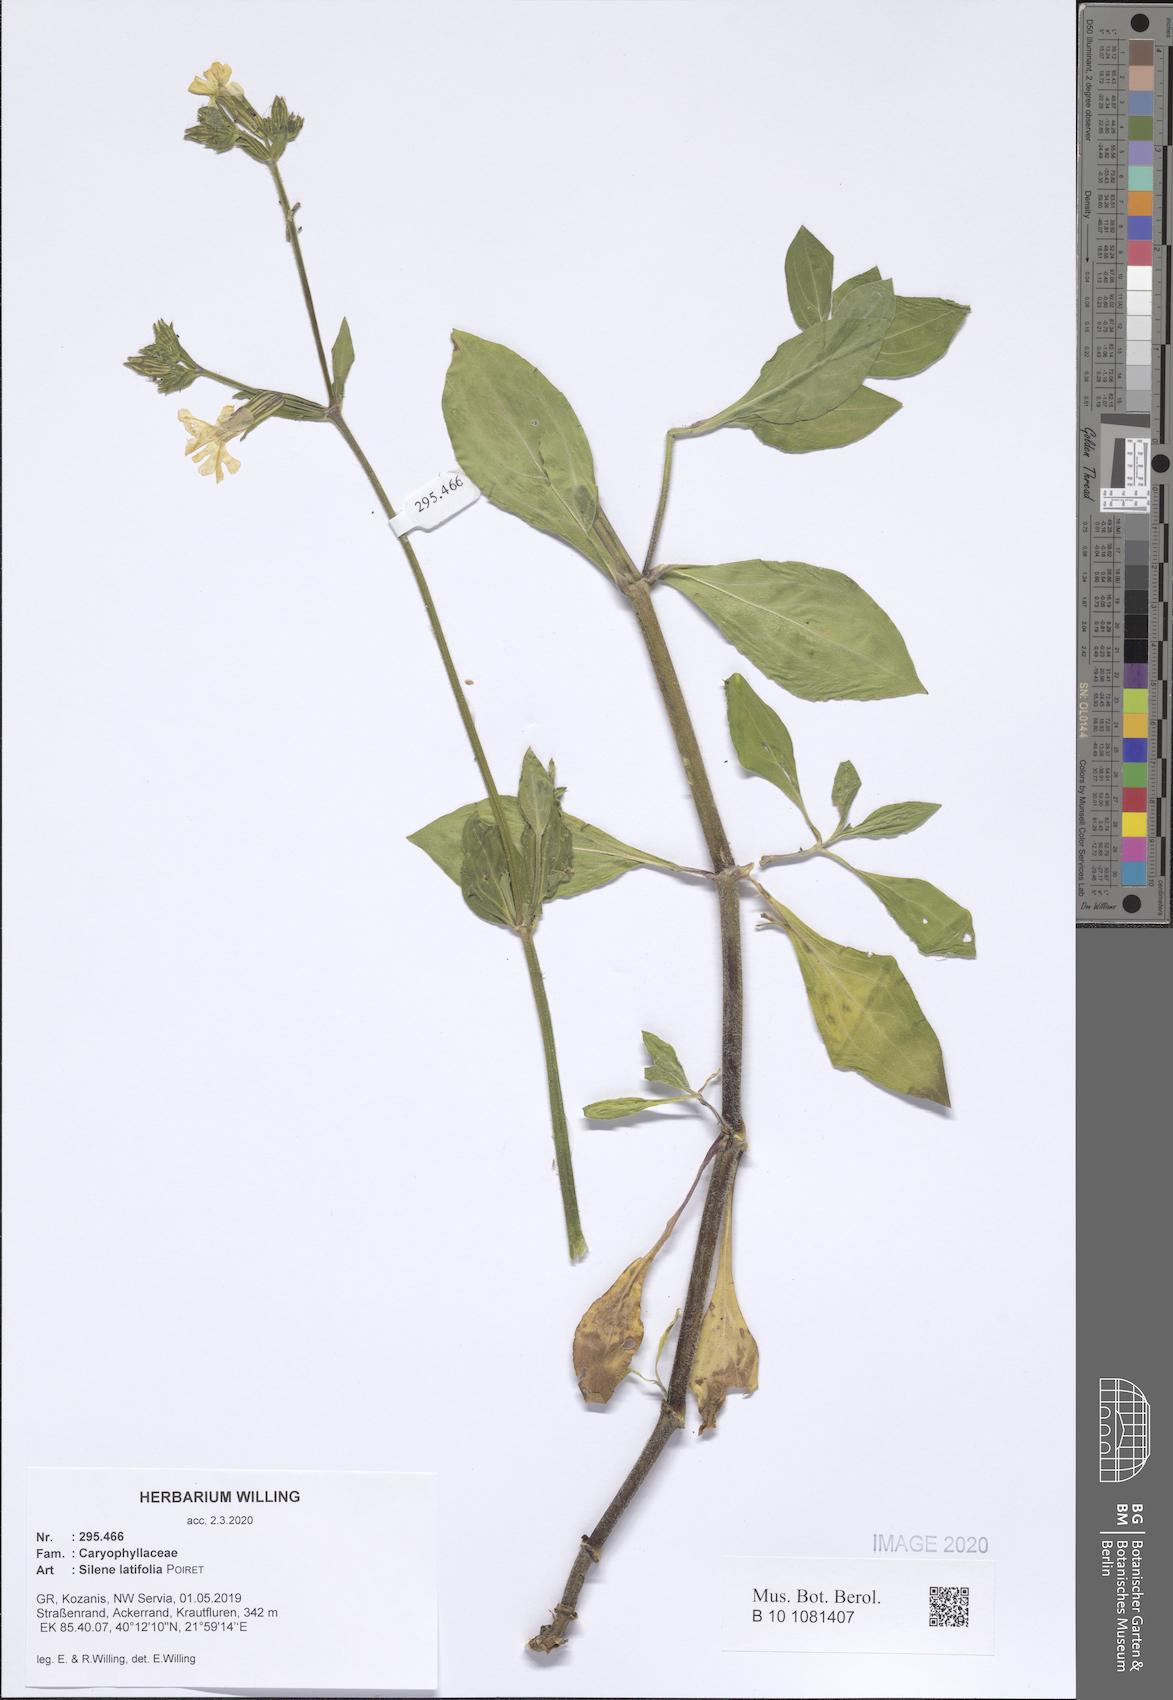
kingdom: Plantae
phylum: Tracheophyta
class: Magnoliopsida
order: Caryophyllales
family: Caryophyllaceae
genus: Silene
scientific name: Silene latifolia
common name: White campion
